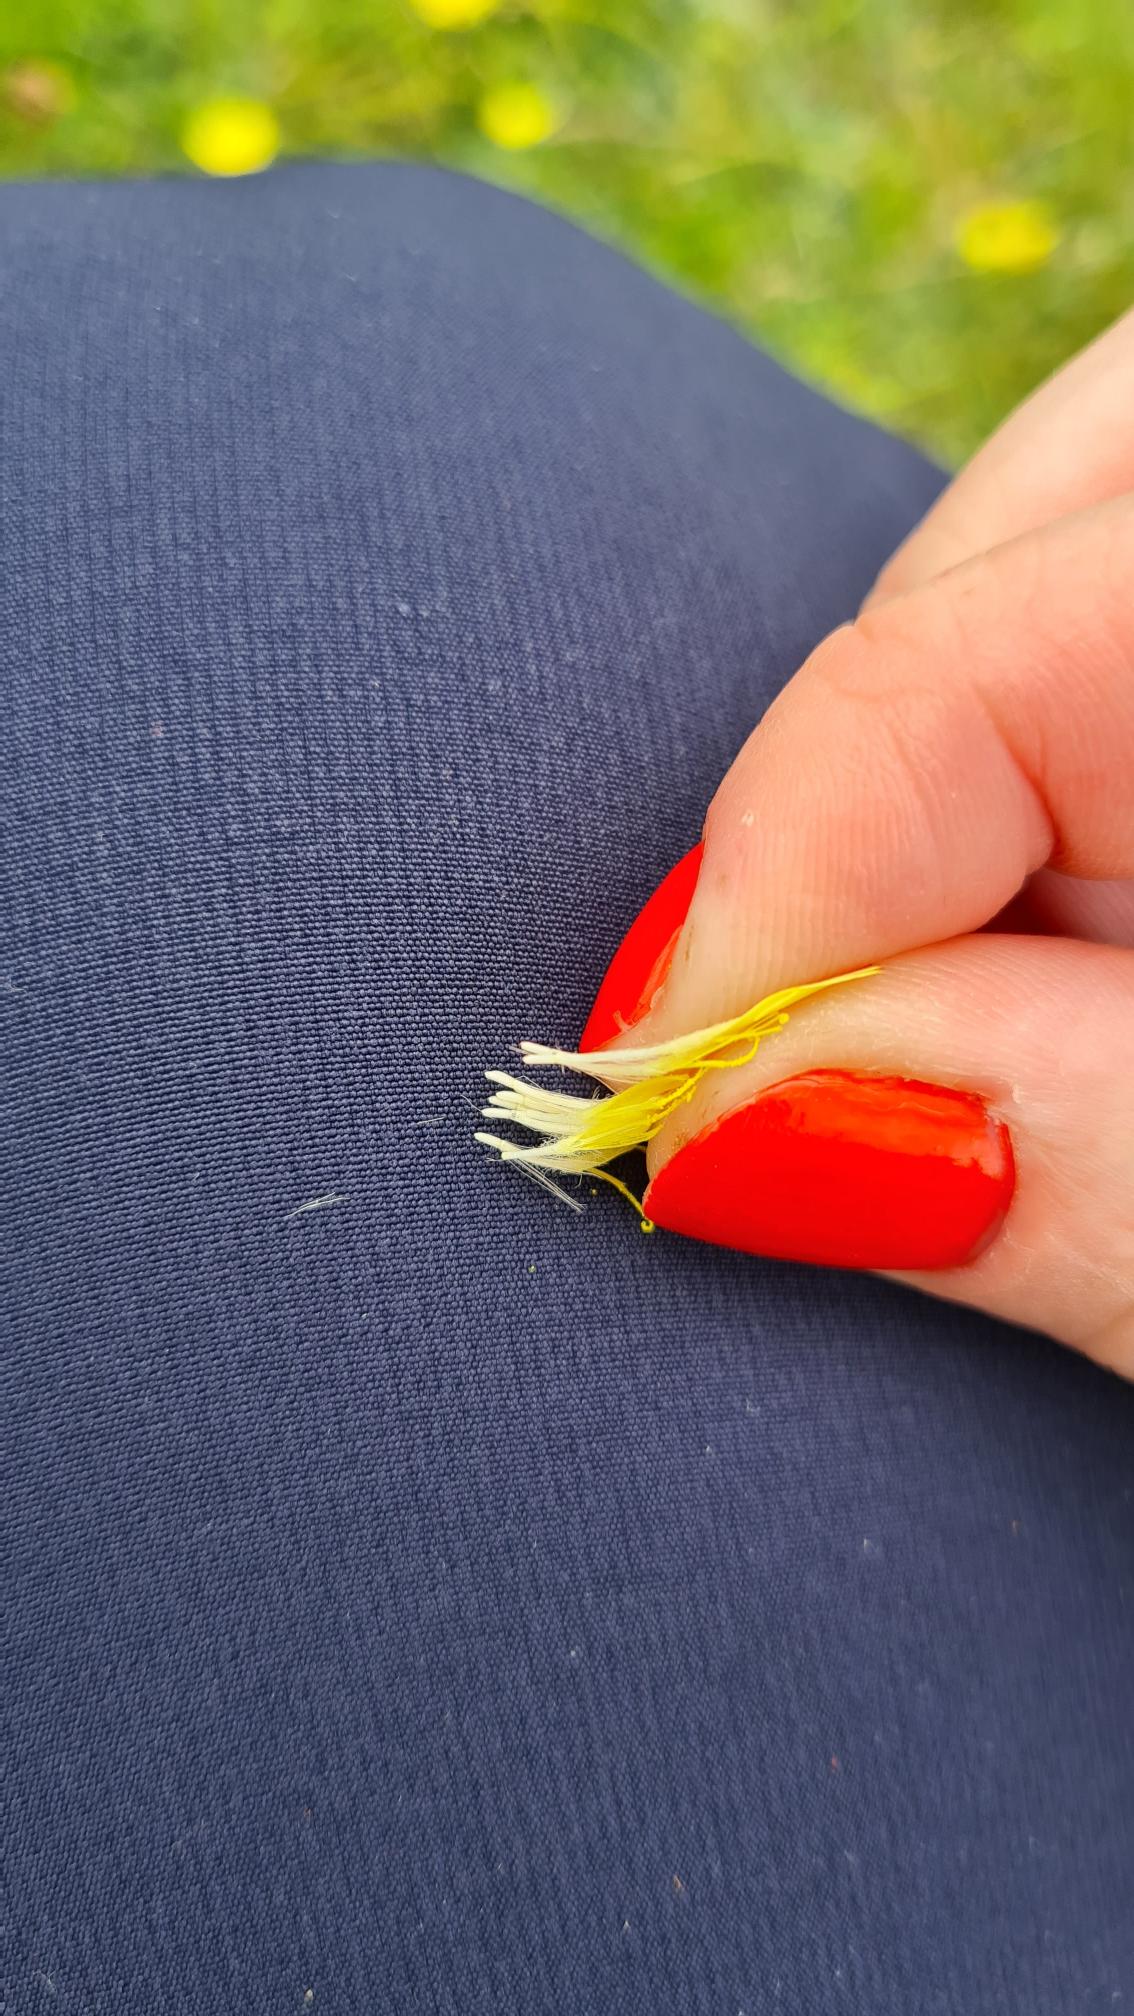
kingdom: Plantae
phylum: Tracheophyta
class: Magnoliopsida
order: Asterales
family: Asteraceae
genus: Pilosella
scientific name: Pilosella officinarum
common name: Håret høgeurt
